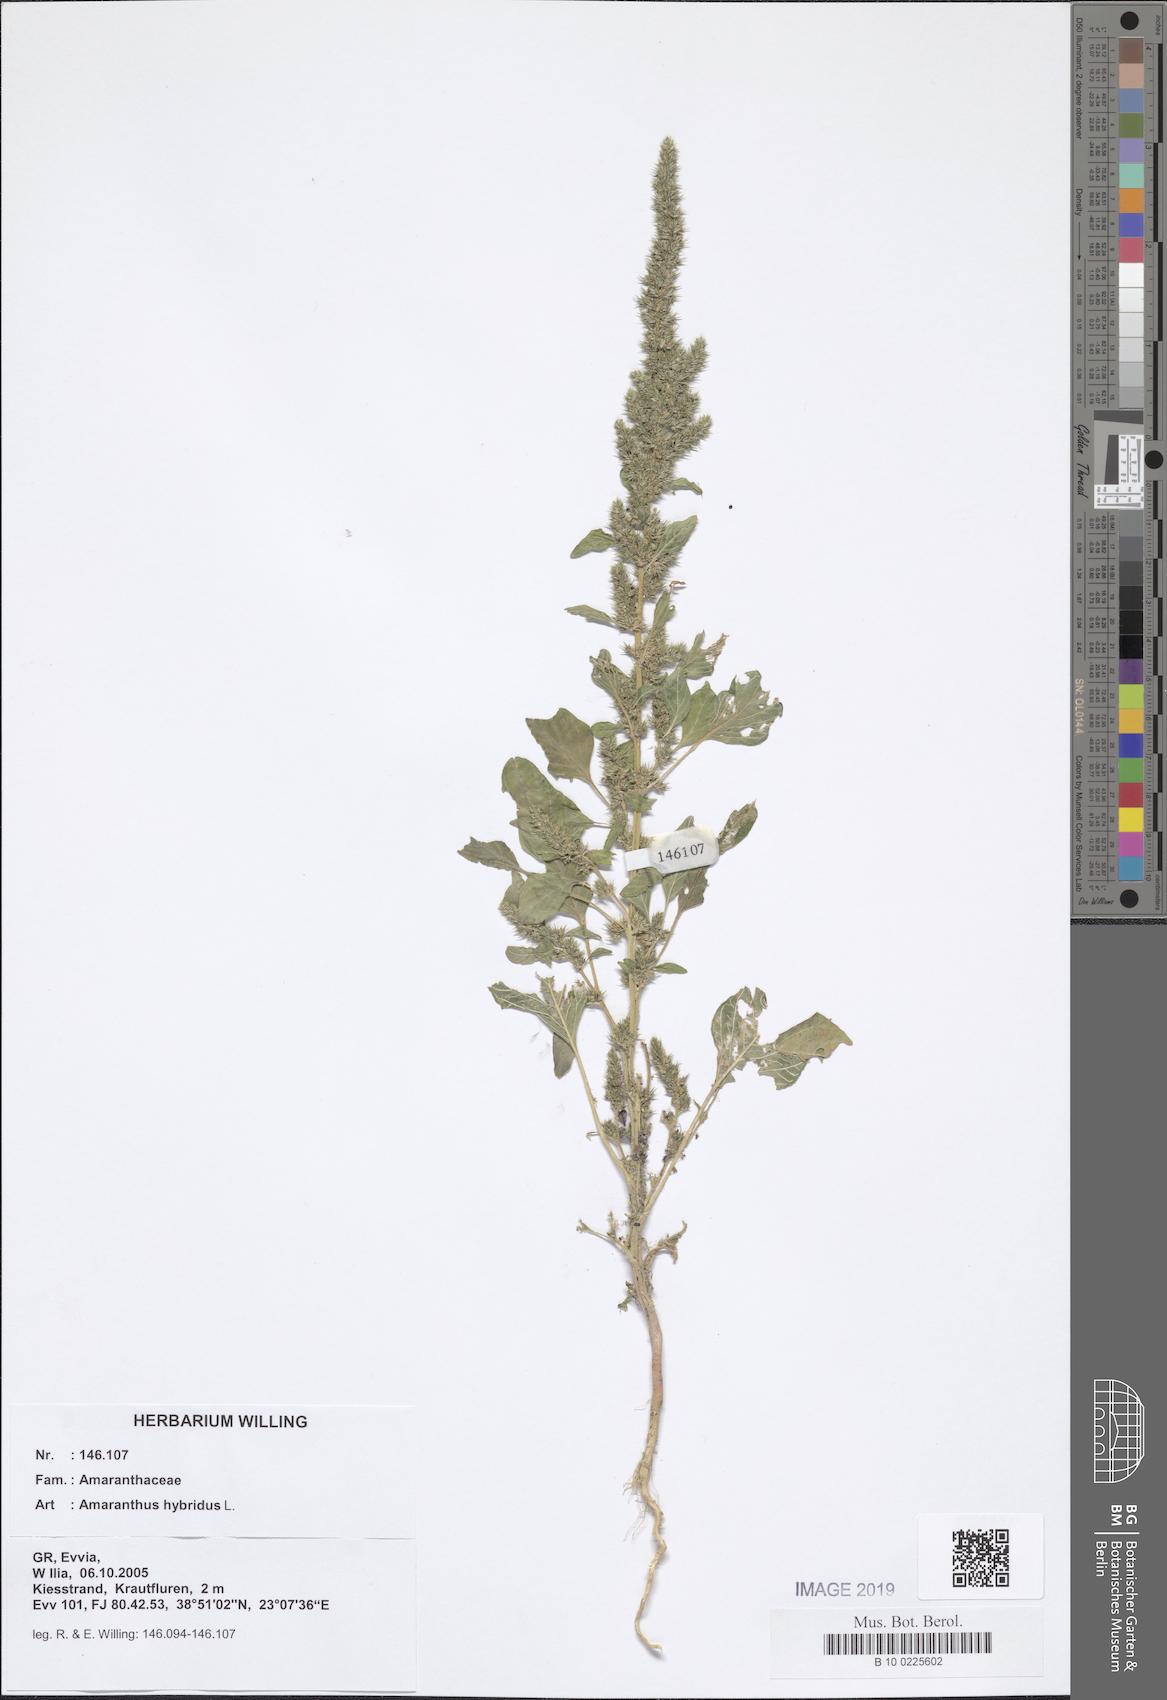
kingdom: Plantae
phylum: Tracheophyta
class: Magnoliopsida
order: Caryophyllales
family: Amaranthaceae
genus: Amaranthus
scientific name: Amaranthus hybridus
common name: Green amaranth
